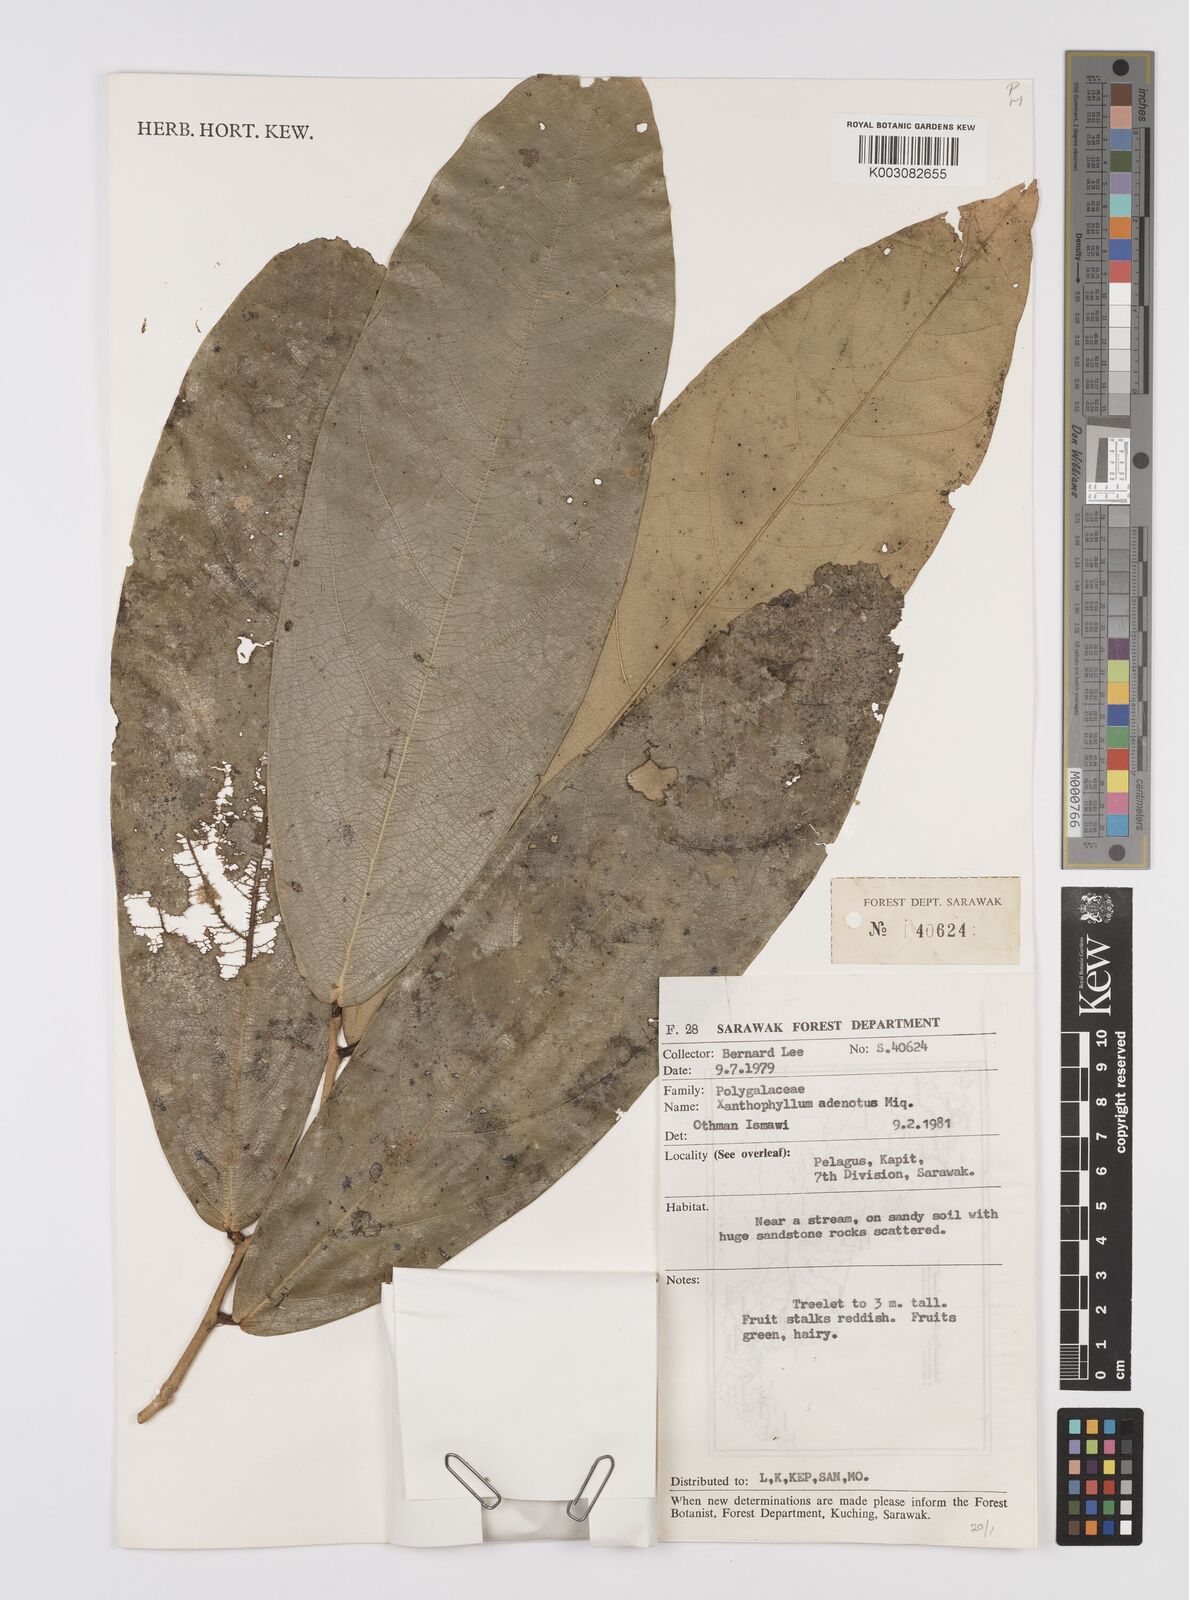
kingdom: Plantae
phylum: Tracheophyta
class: Magnoliopsida
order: Fabales
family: Polygalaceae
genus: Xanthophyllum
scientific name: Xanthophyllum adenotus
